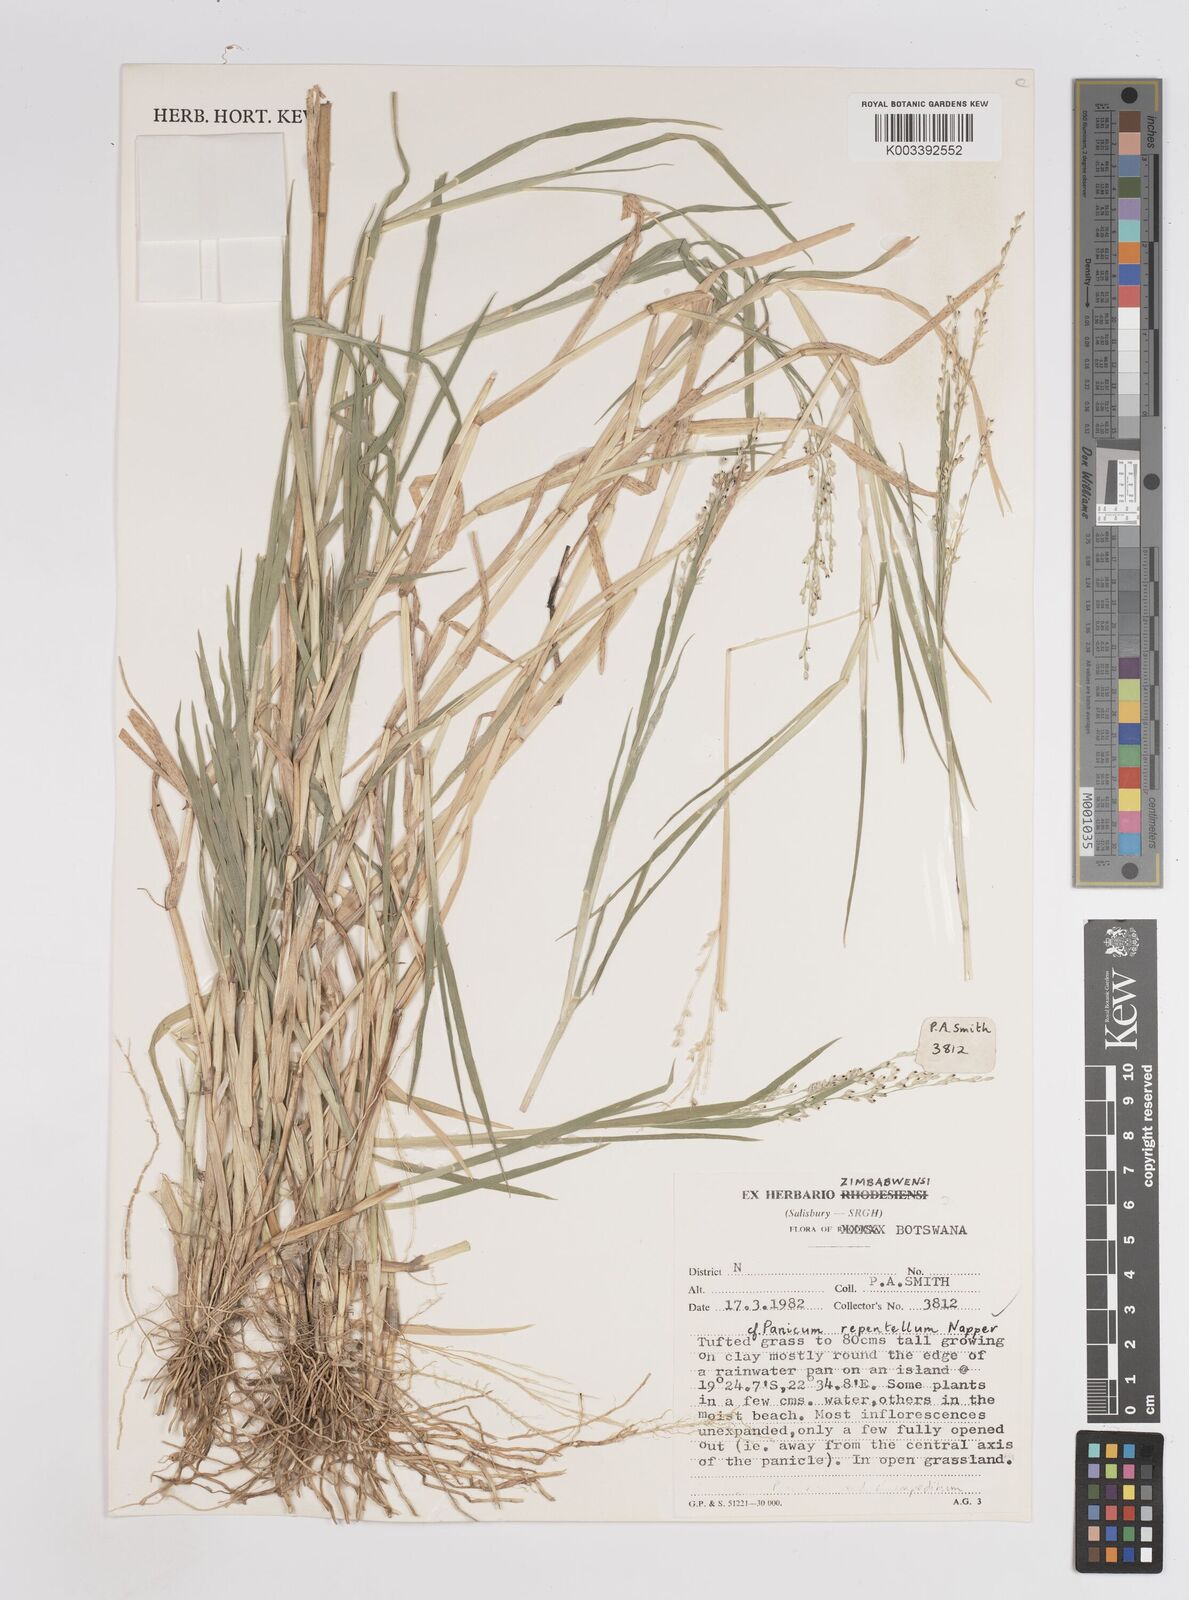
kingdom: Plantae
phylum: Tracheophyta
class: Liliopsida
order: Poales
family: Poaceae
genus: Panicum
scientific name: Panicum hygrocharis
